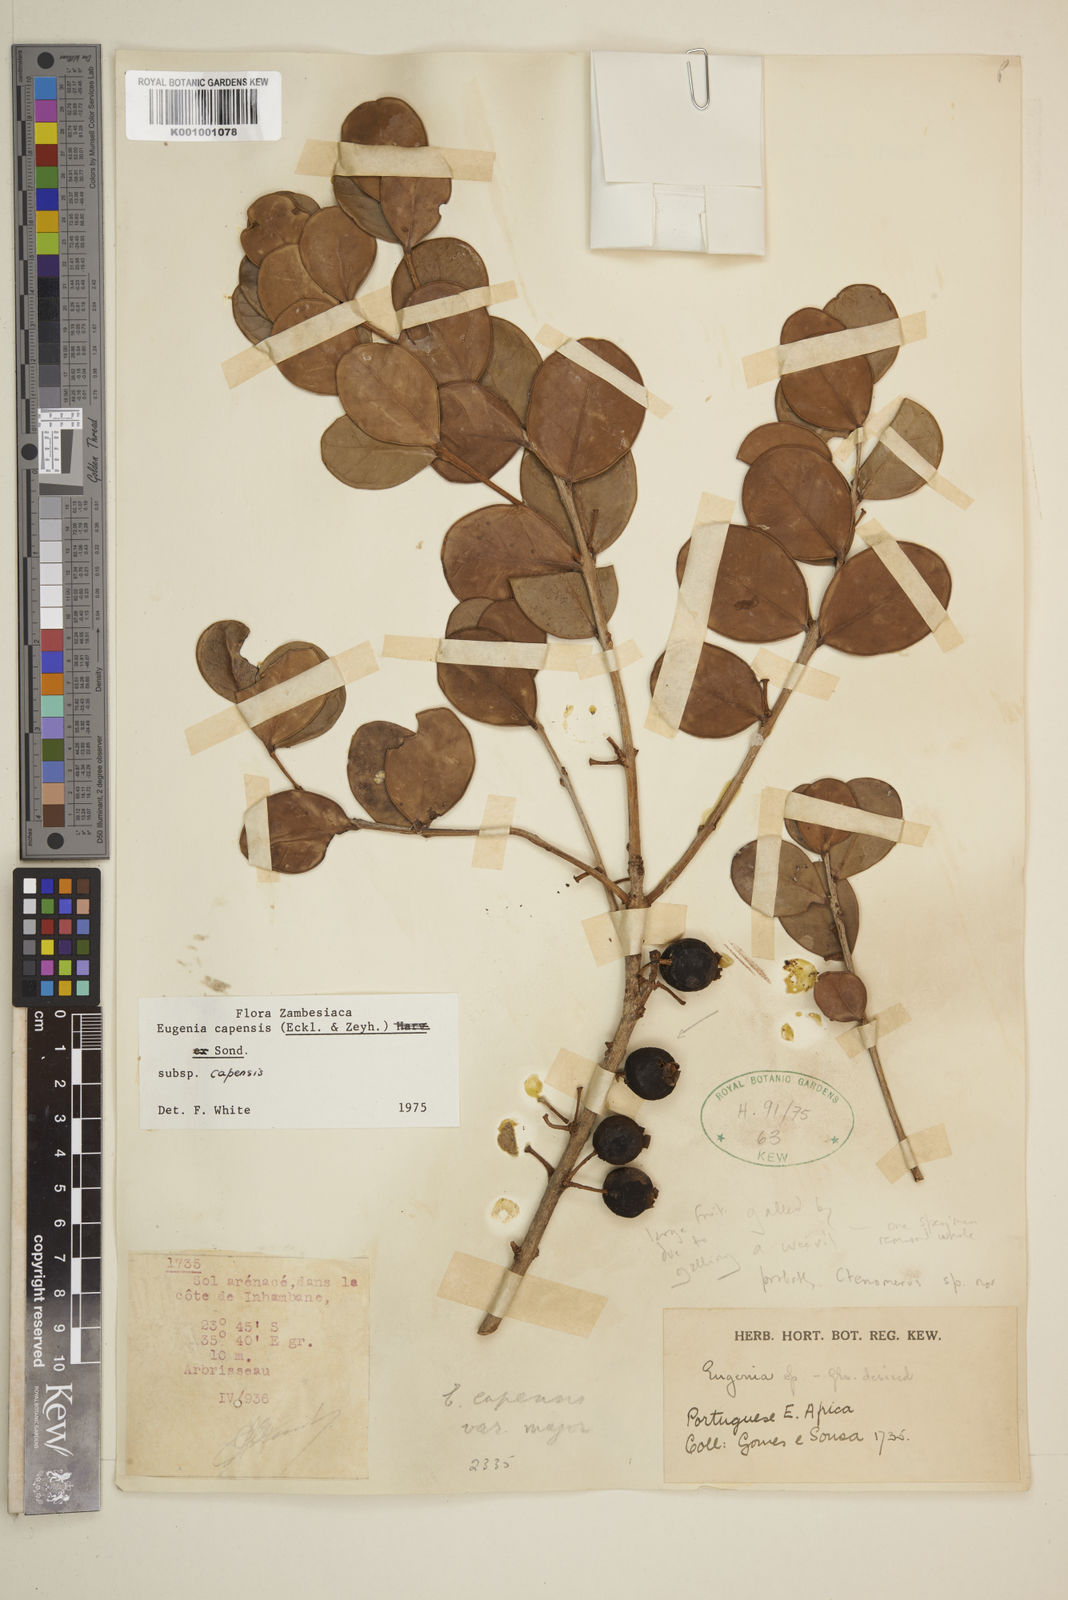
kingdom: Plantae
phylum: Tracheophyta
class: Magnoliopsida
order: Myrtales
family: Myrtaceae
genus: Eugenia
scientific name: Eugenia capensis
